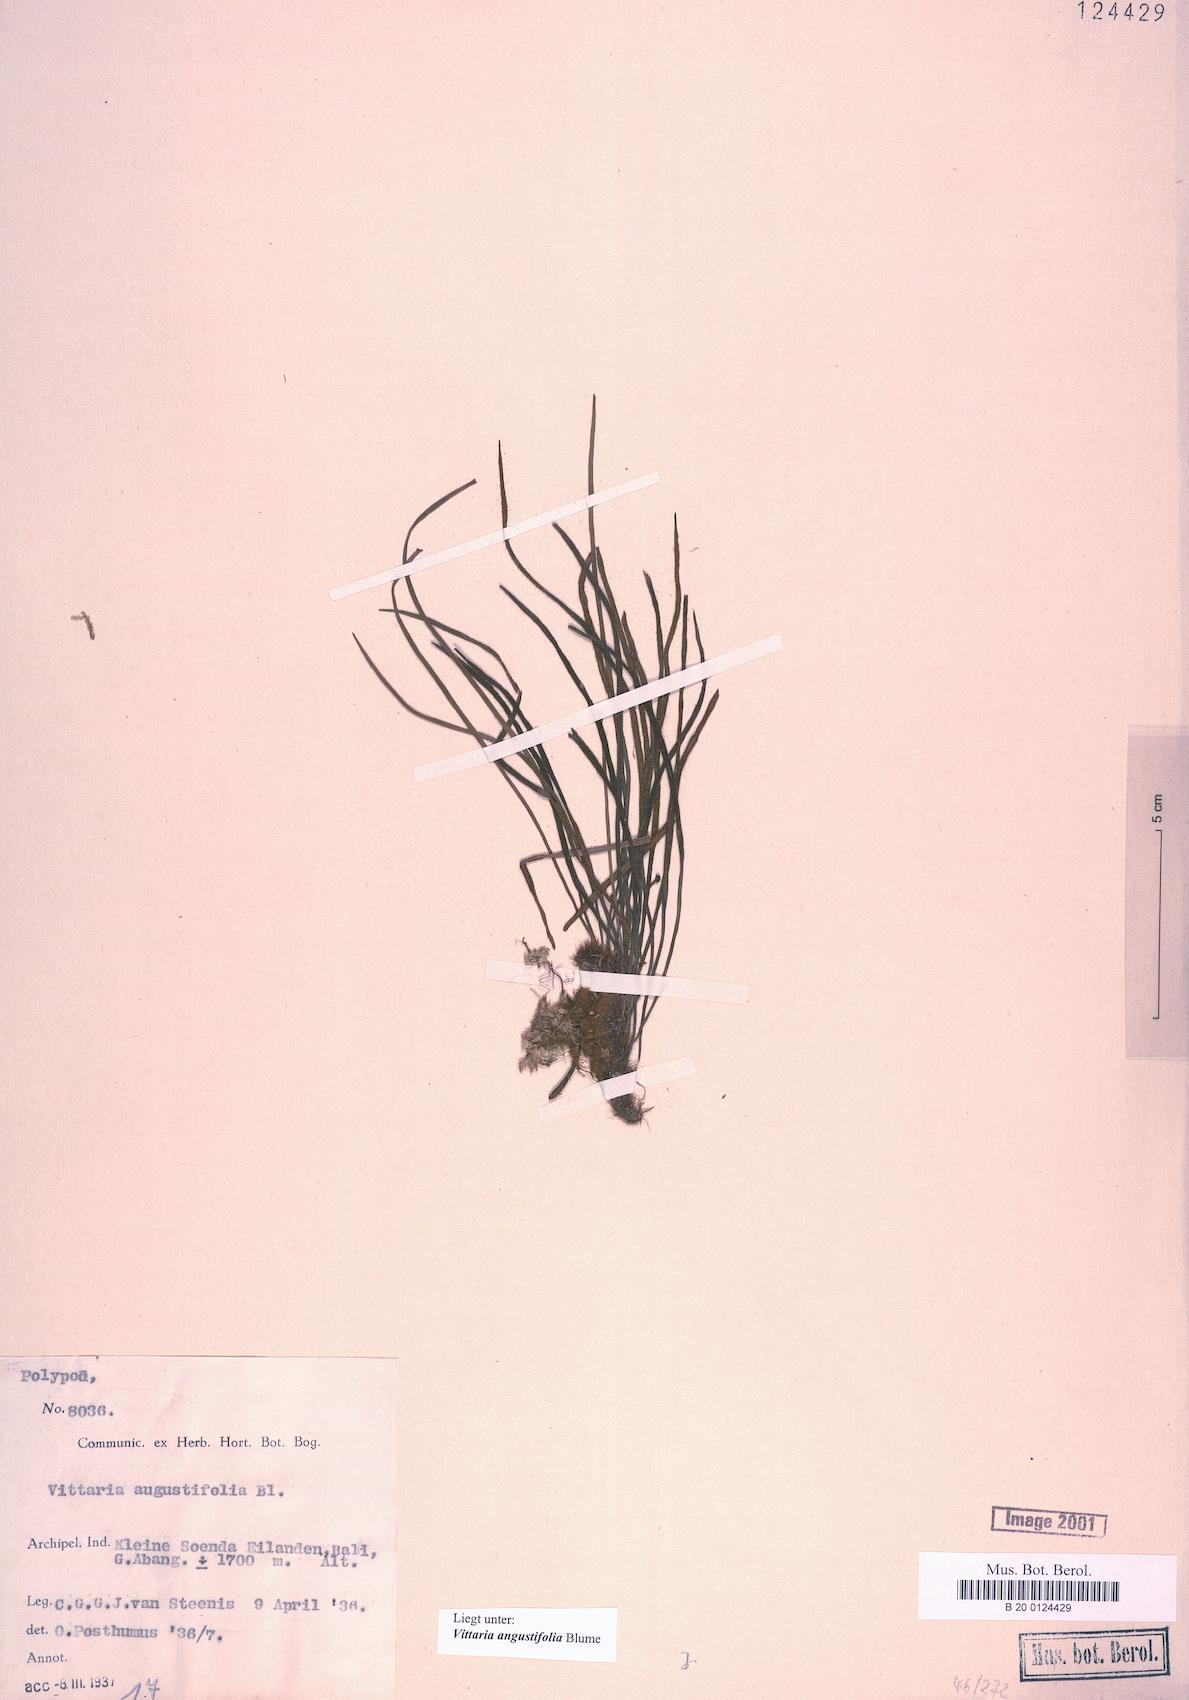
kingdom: Plantae
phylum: Tracheophyta
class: Polypodiopsida
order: Polypodiales
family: Pteridaceae
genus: Ananthacorus
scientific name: Ananthacorus angustifolius
